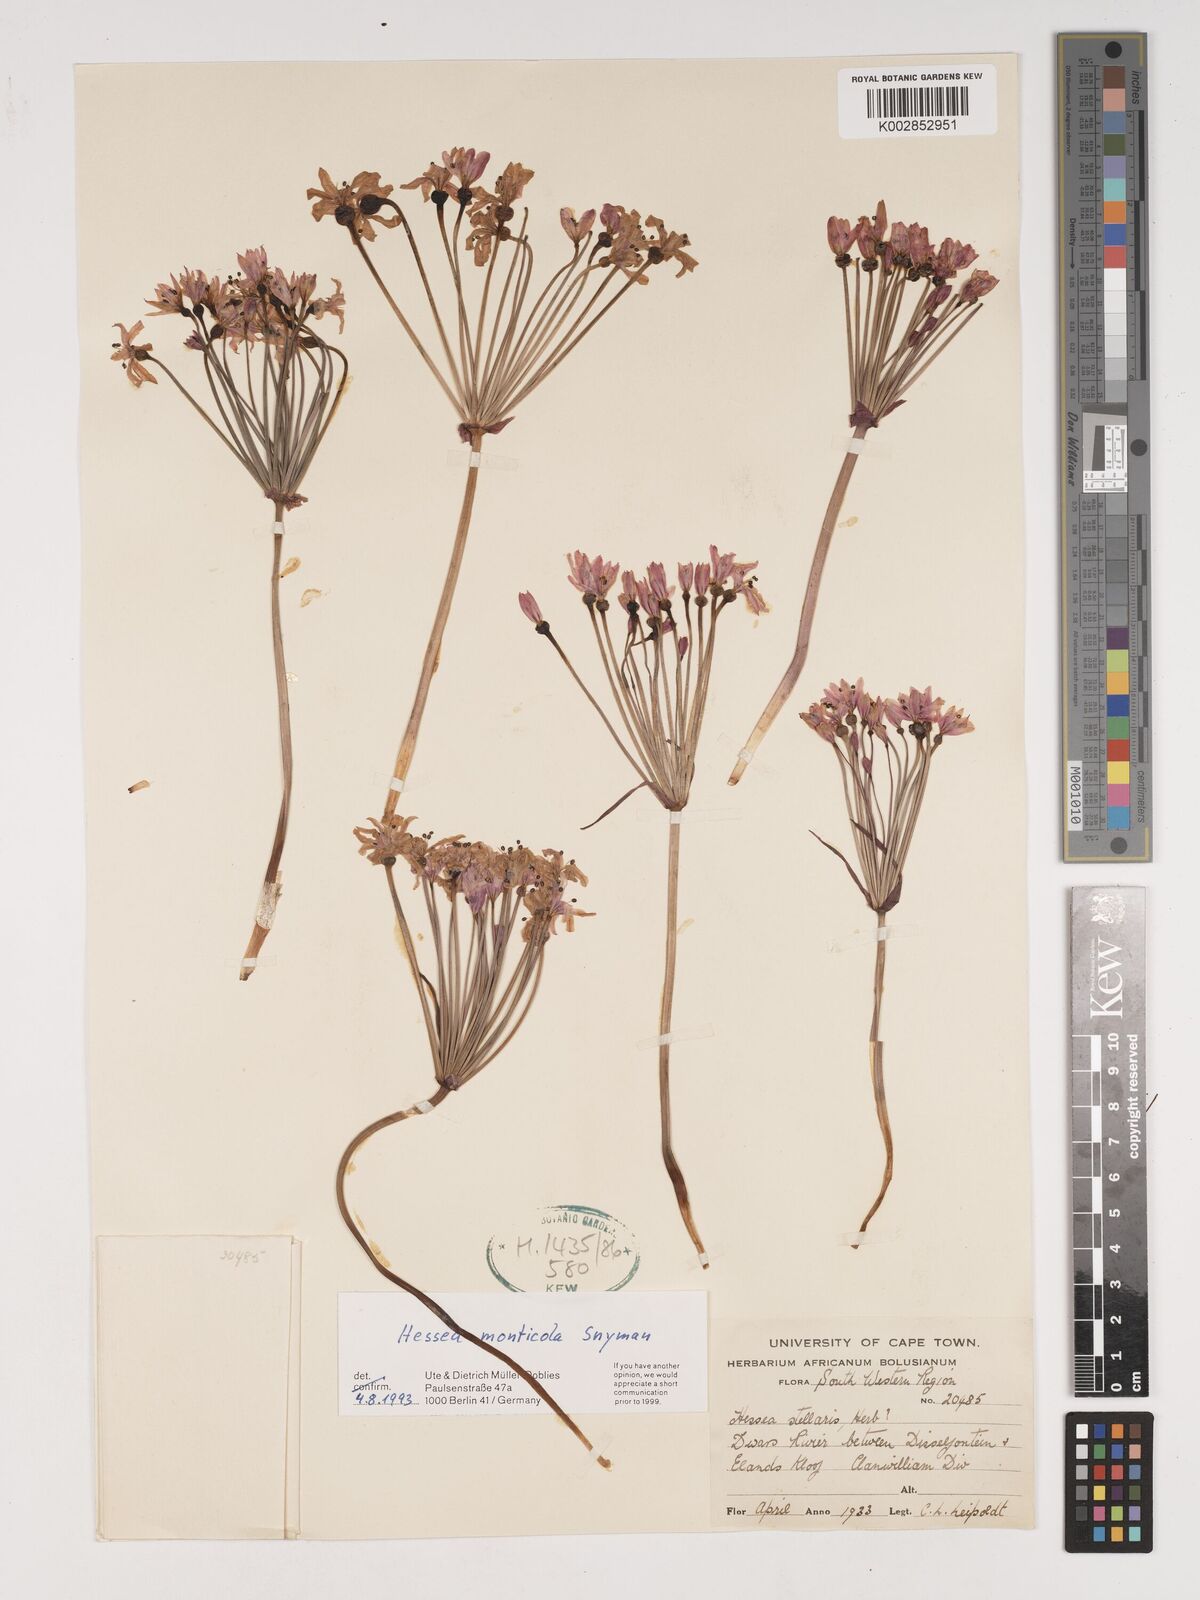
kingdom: Plantae
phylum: Tracheophyta
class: Liliopsida
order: Asparagales
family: Amaryllidaceae
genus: Hessea
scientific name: Hessea monticola
